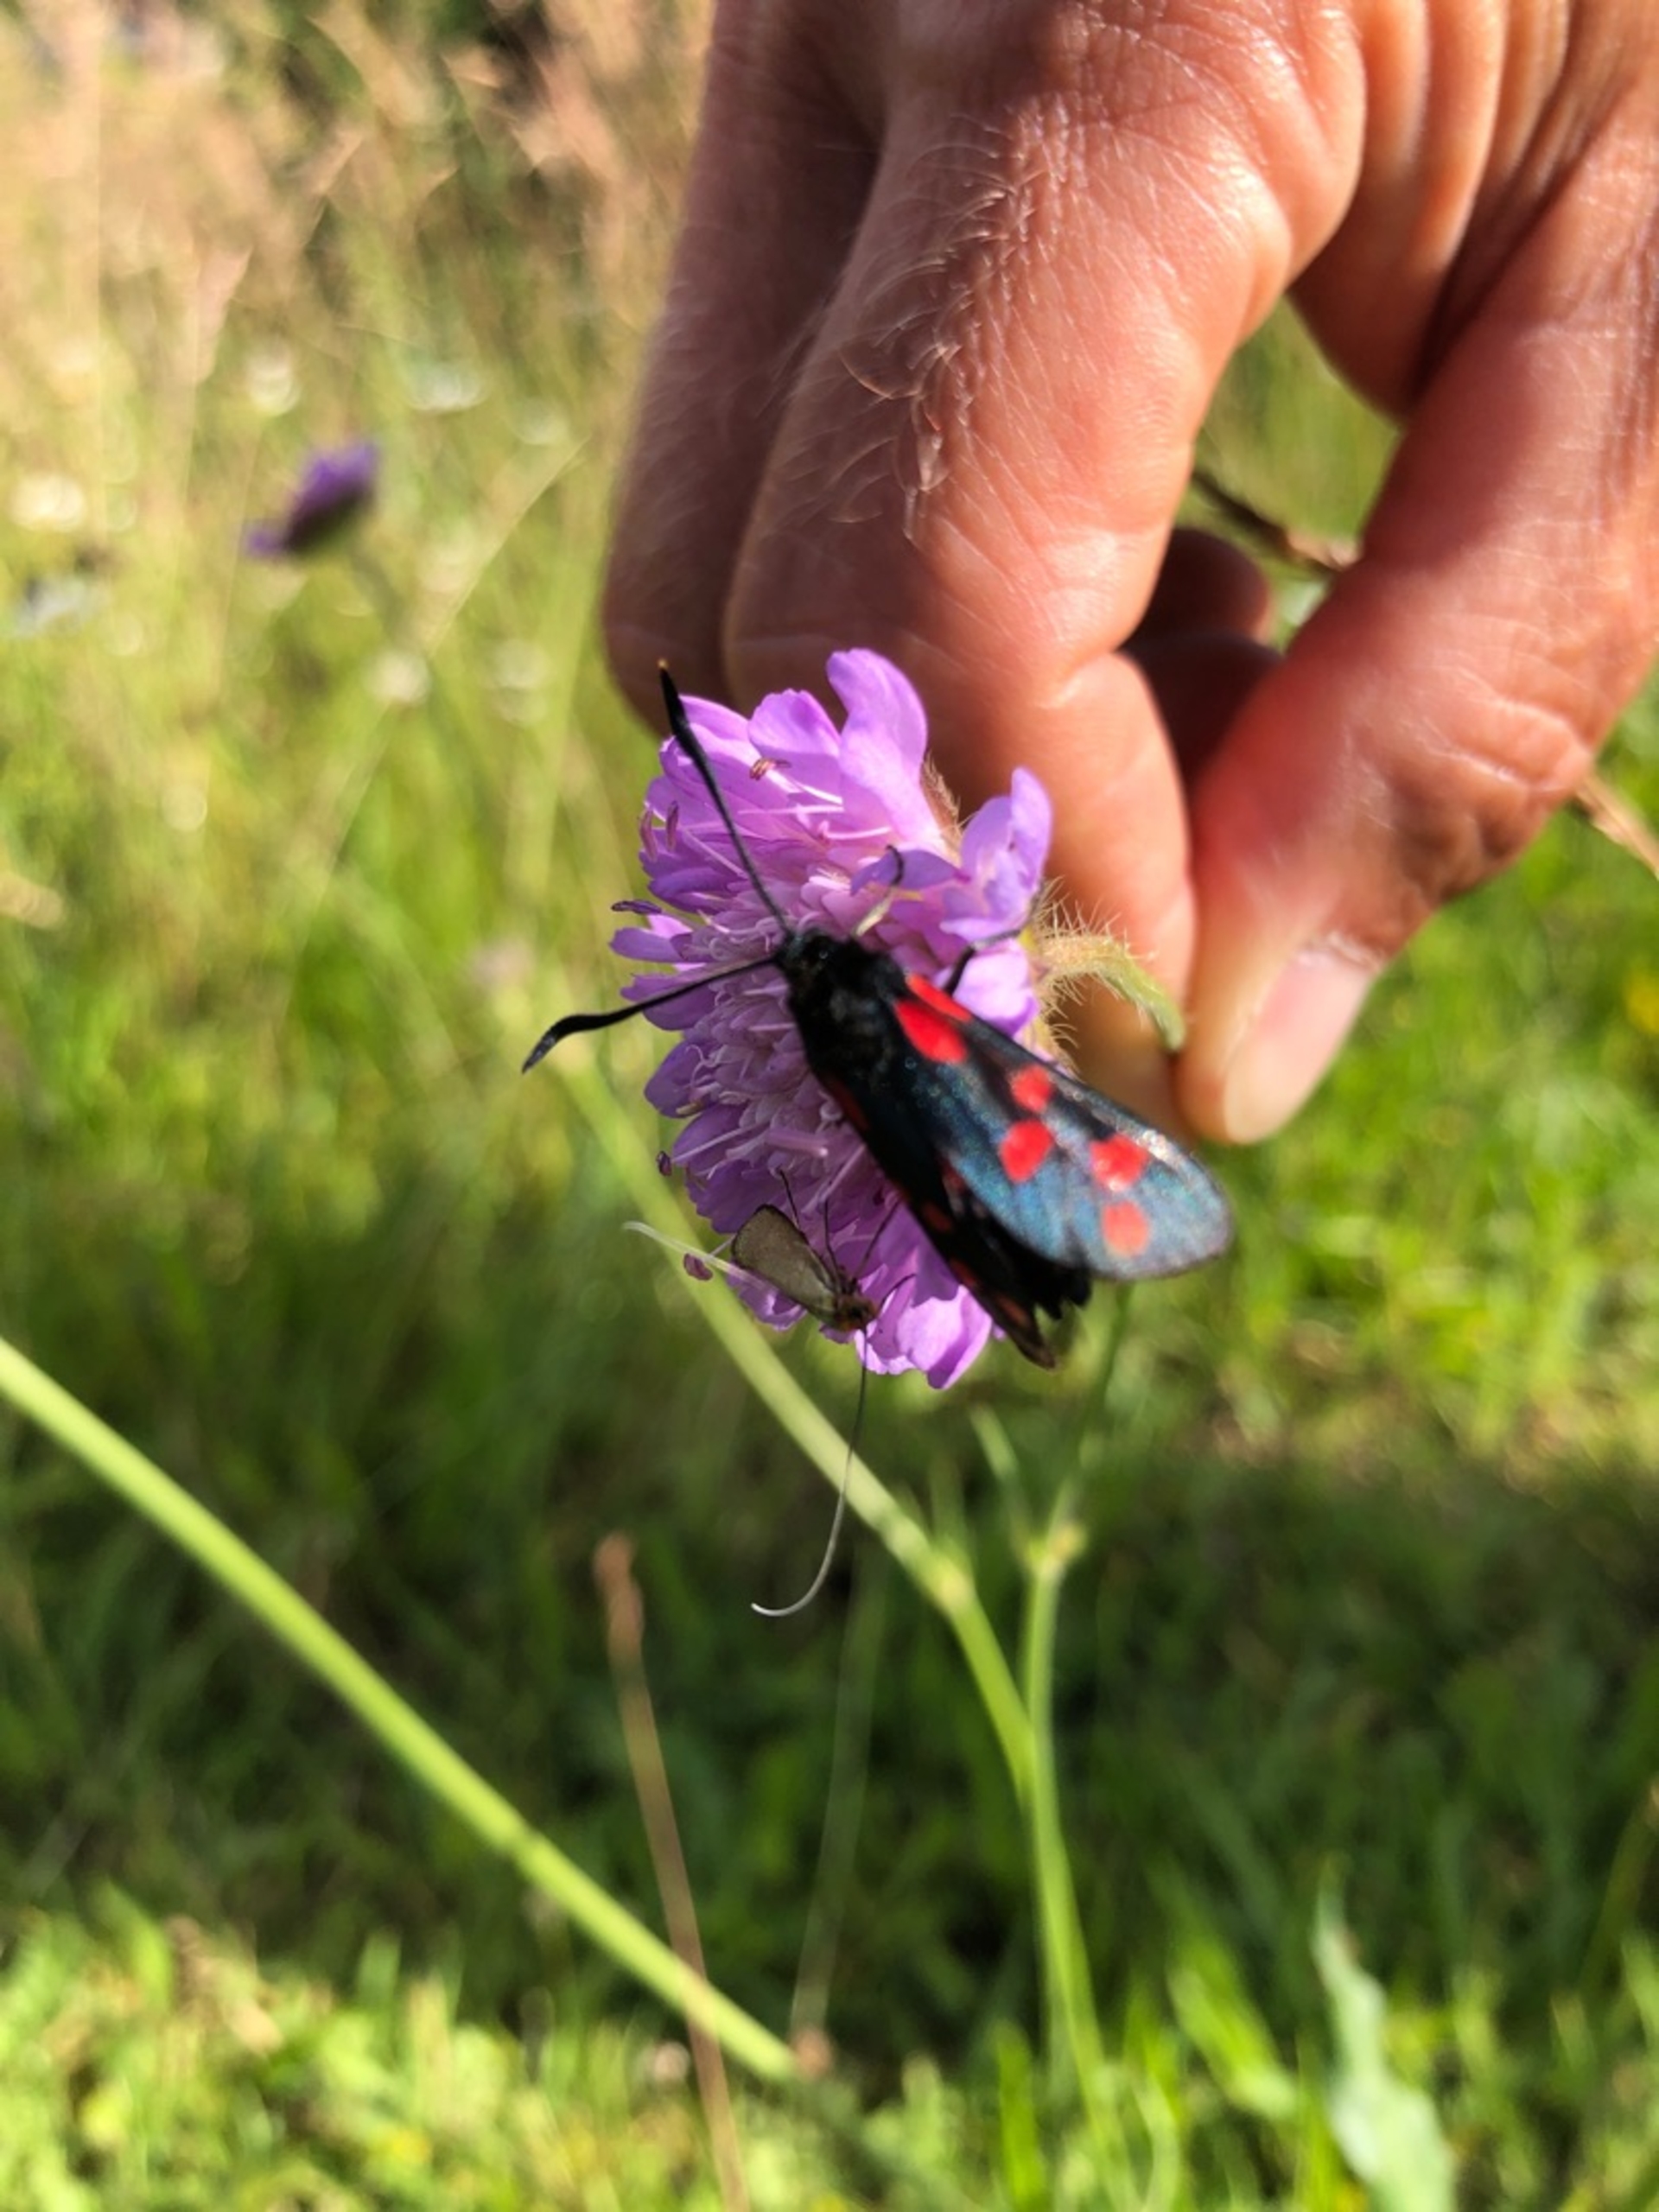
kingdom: Animalia
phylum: Arthropoda
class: Insecta
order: Lepidoptera
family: Zygaenidae
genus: Zygaena
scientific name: Zygaena filipendulae
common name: Seksplettet køllesværmer
